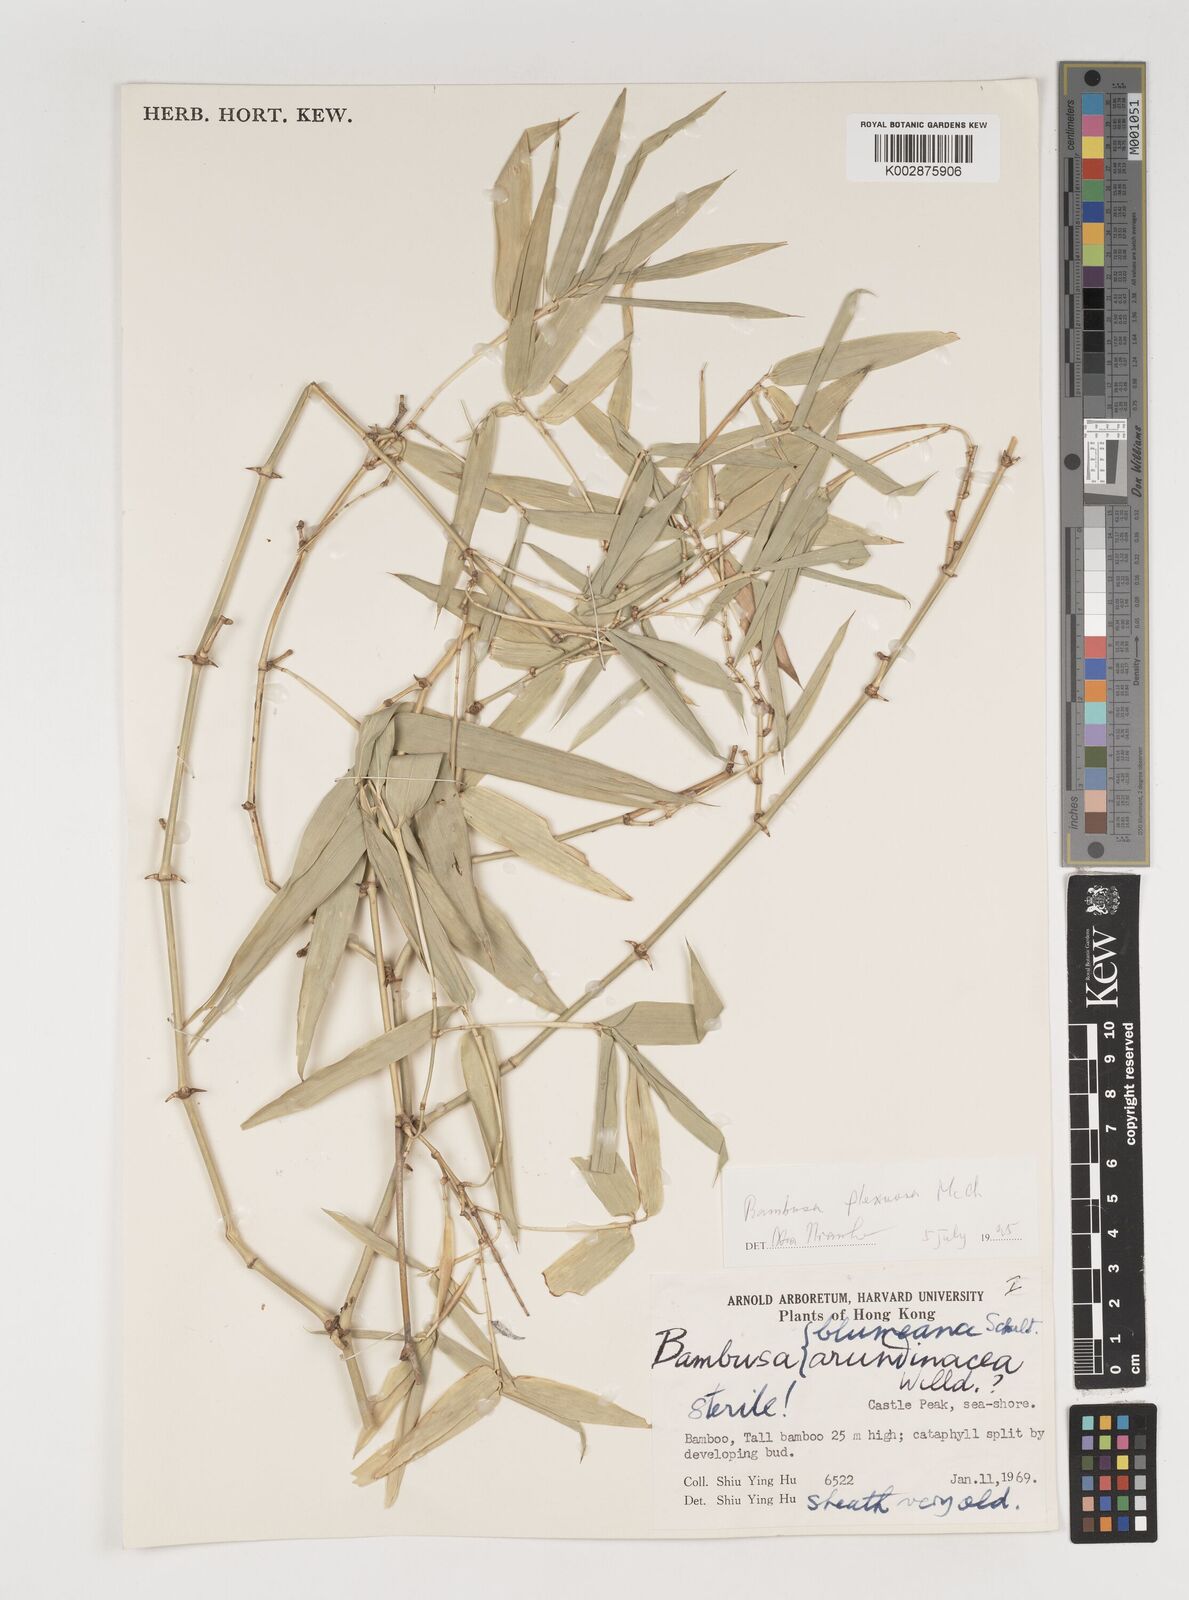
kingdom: Plantae
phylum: Tracheophyta
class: Liliopsida
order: Poales
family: Poaceae
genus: Bambusa
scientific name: Bambusa flexuosa
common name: Lesser thorny bamboo
